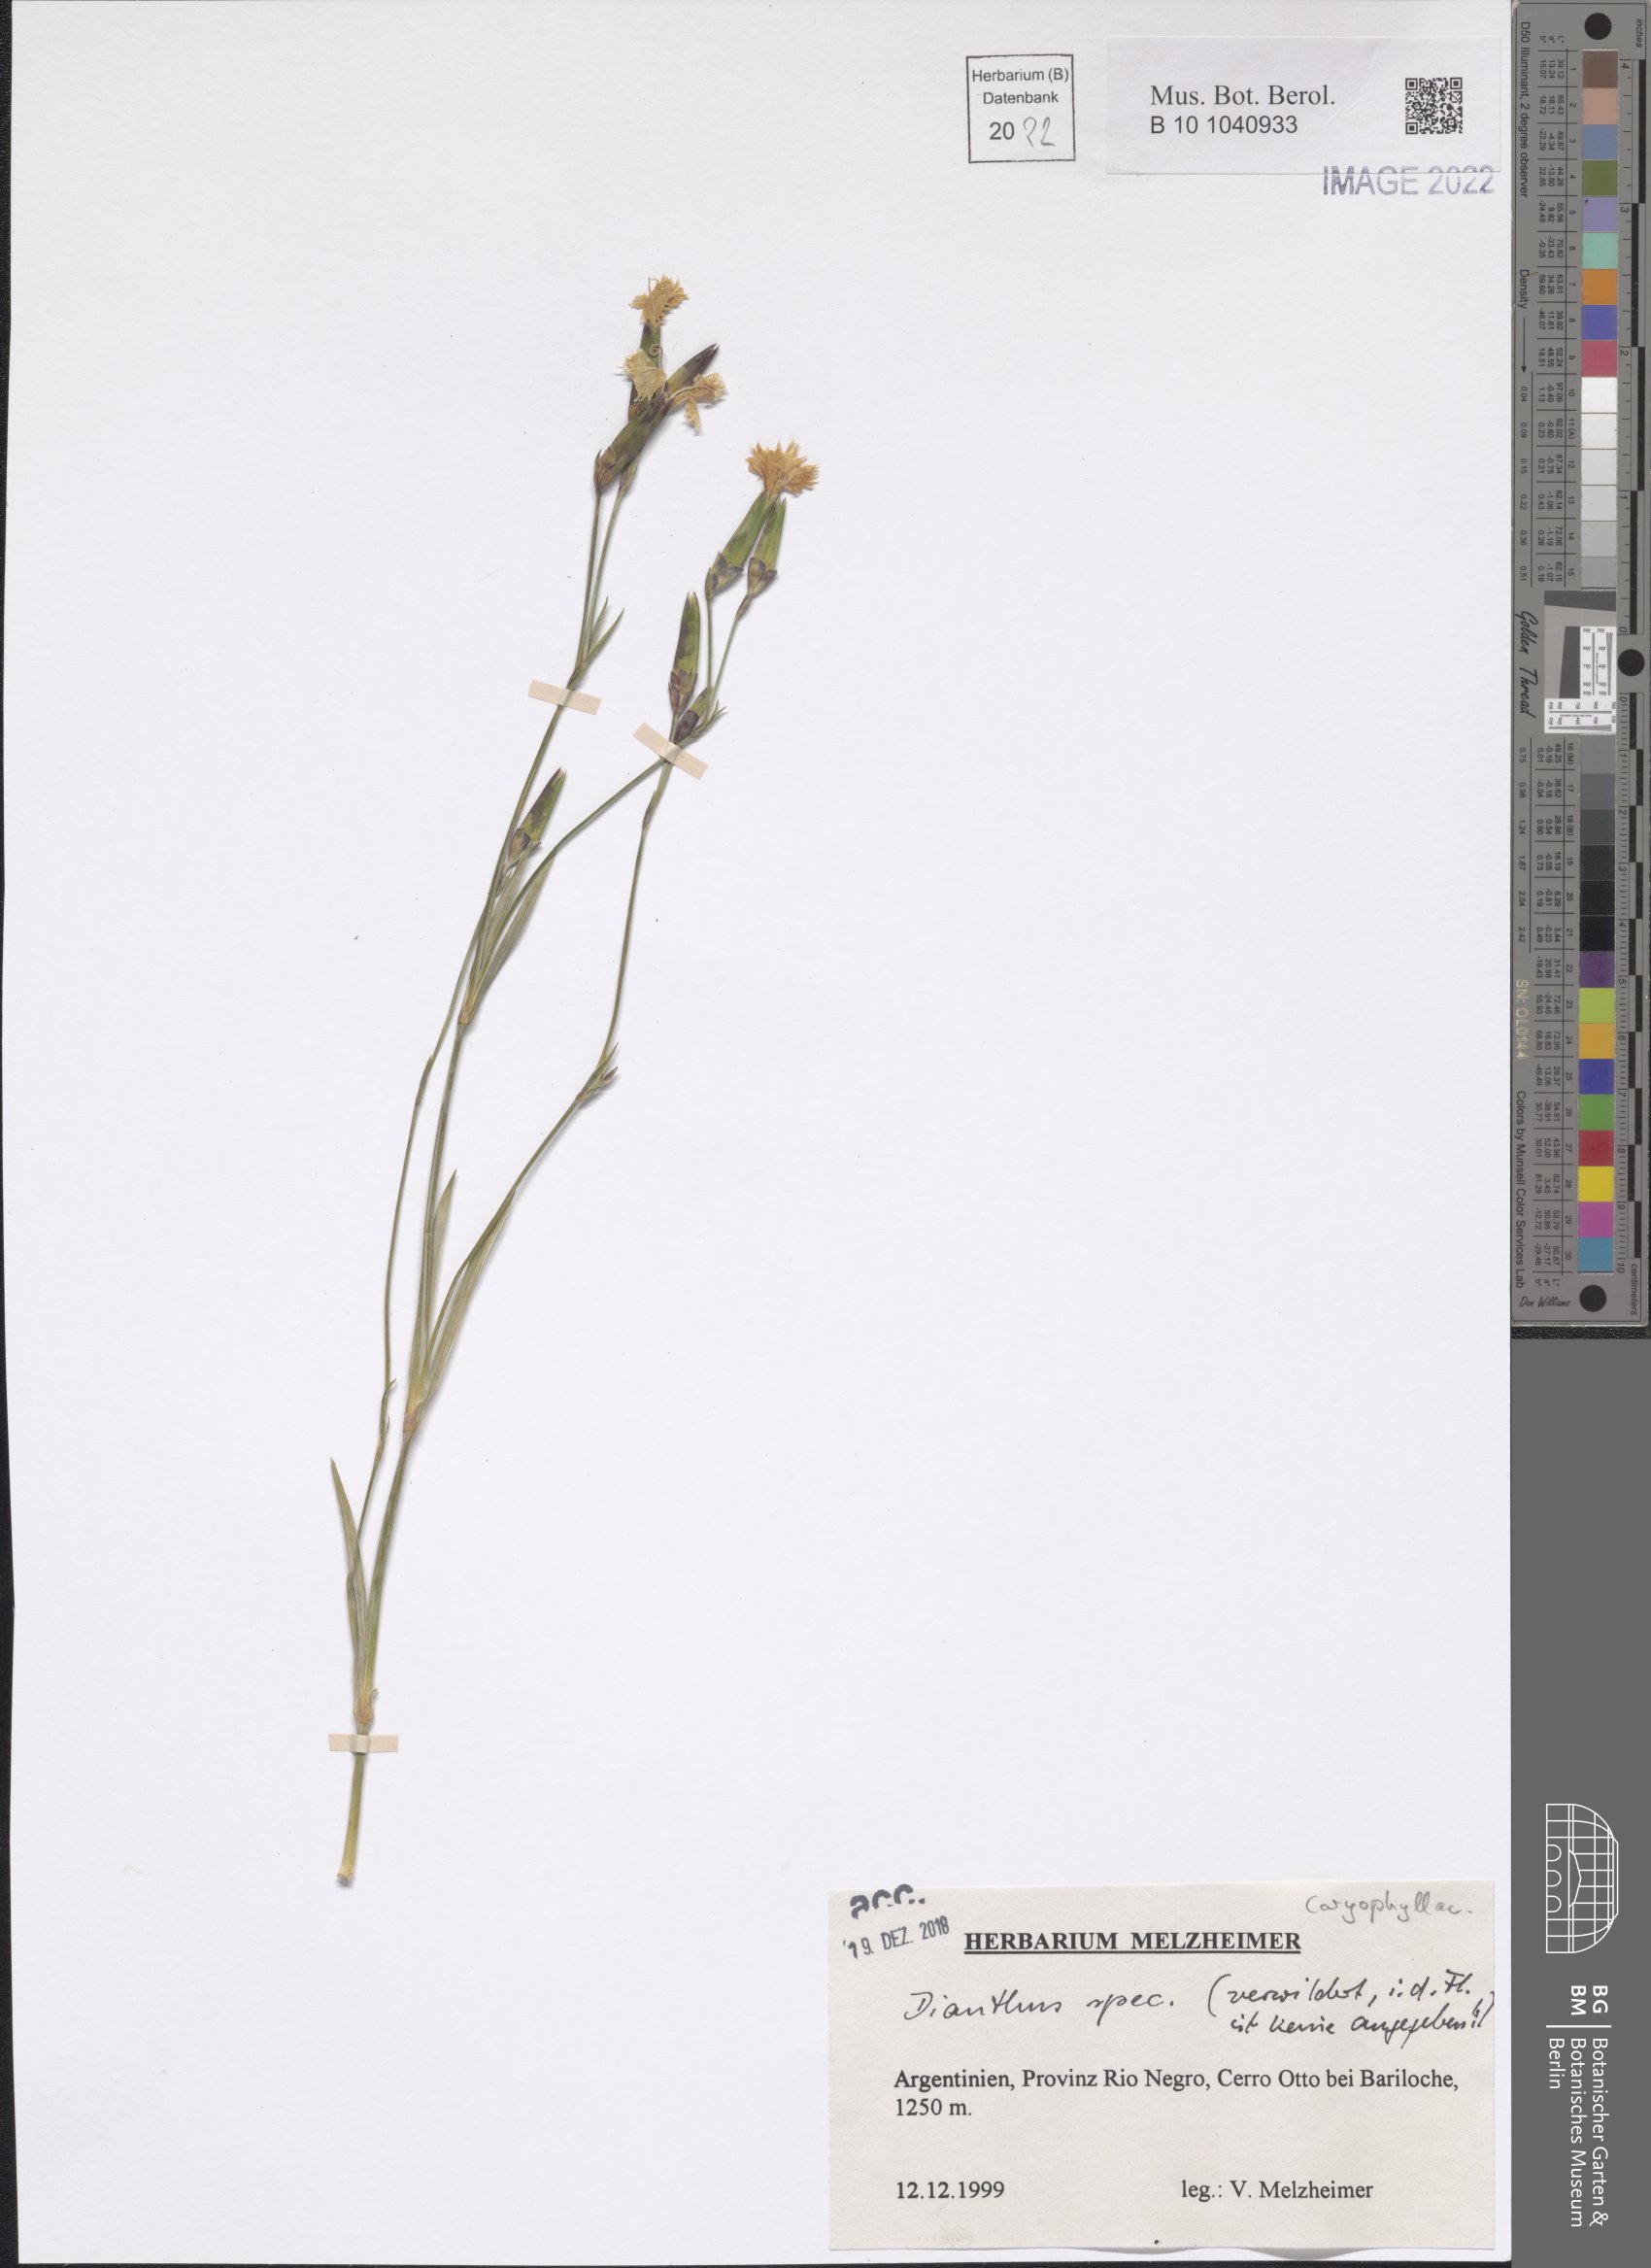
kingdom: Plantae
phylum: Tracheophyta
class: Magnoliopsida
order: Caryophyllales
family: Caryophyllaceae
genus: Dianthus
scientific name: Dianthus
